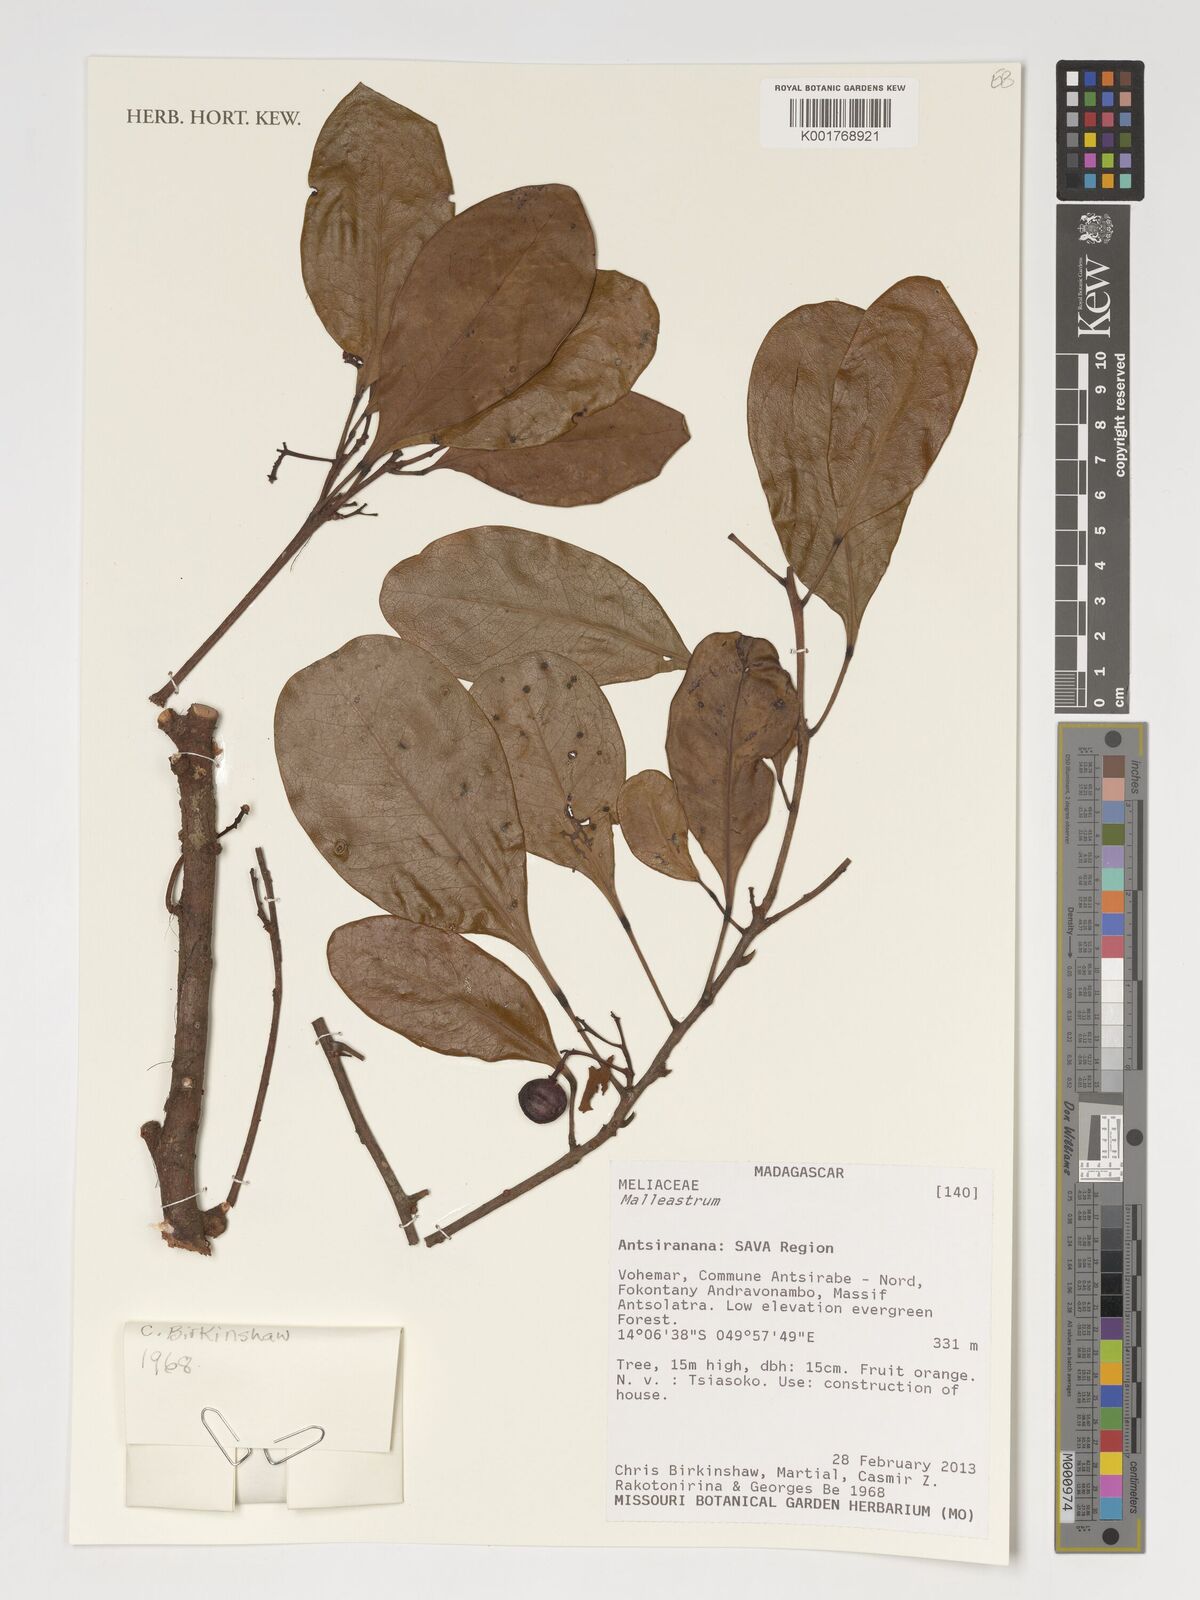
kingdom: Plantae
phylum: Tracheophyta
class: Magnoliopsida
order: Sapindales
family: Meliaceae
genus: Malleastrum
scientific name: Malleastrum
